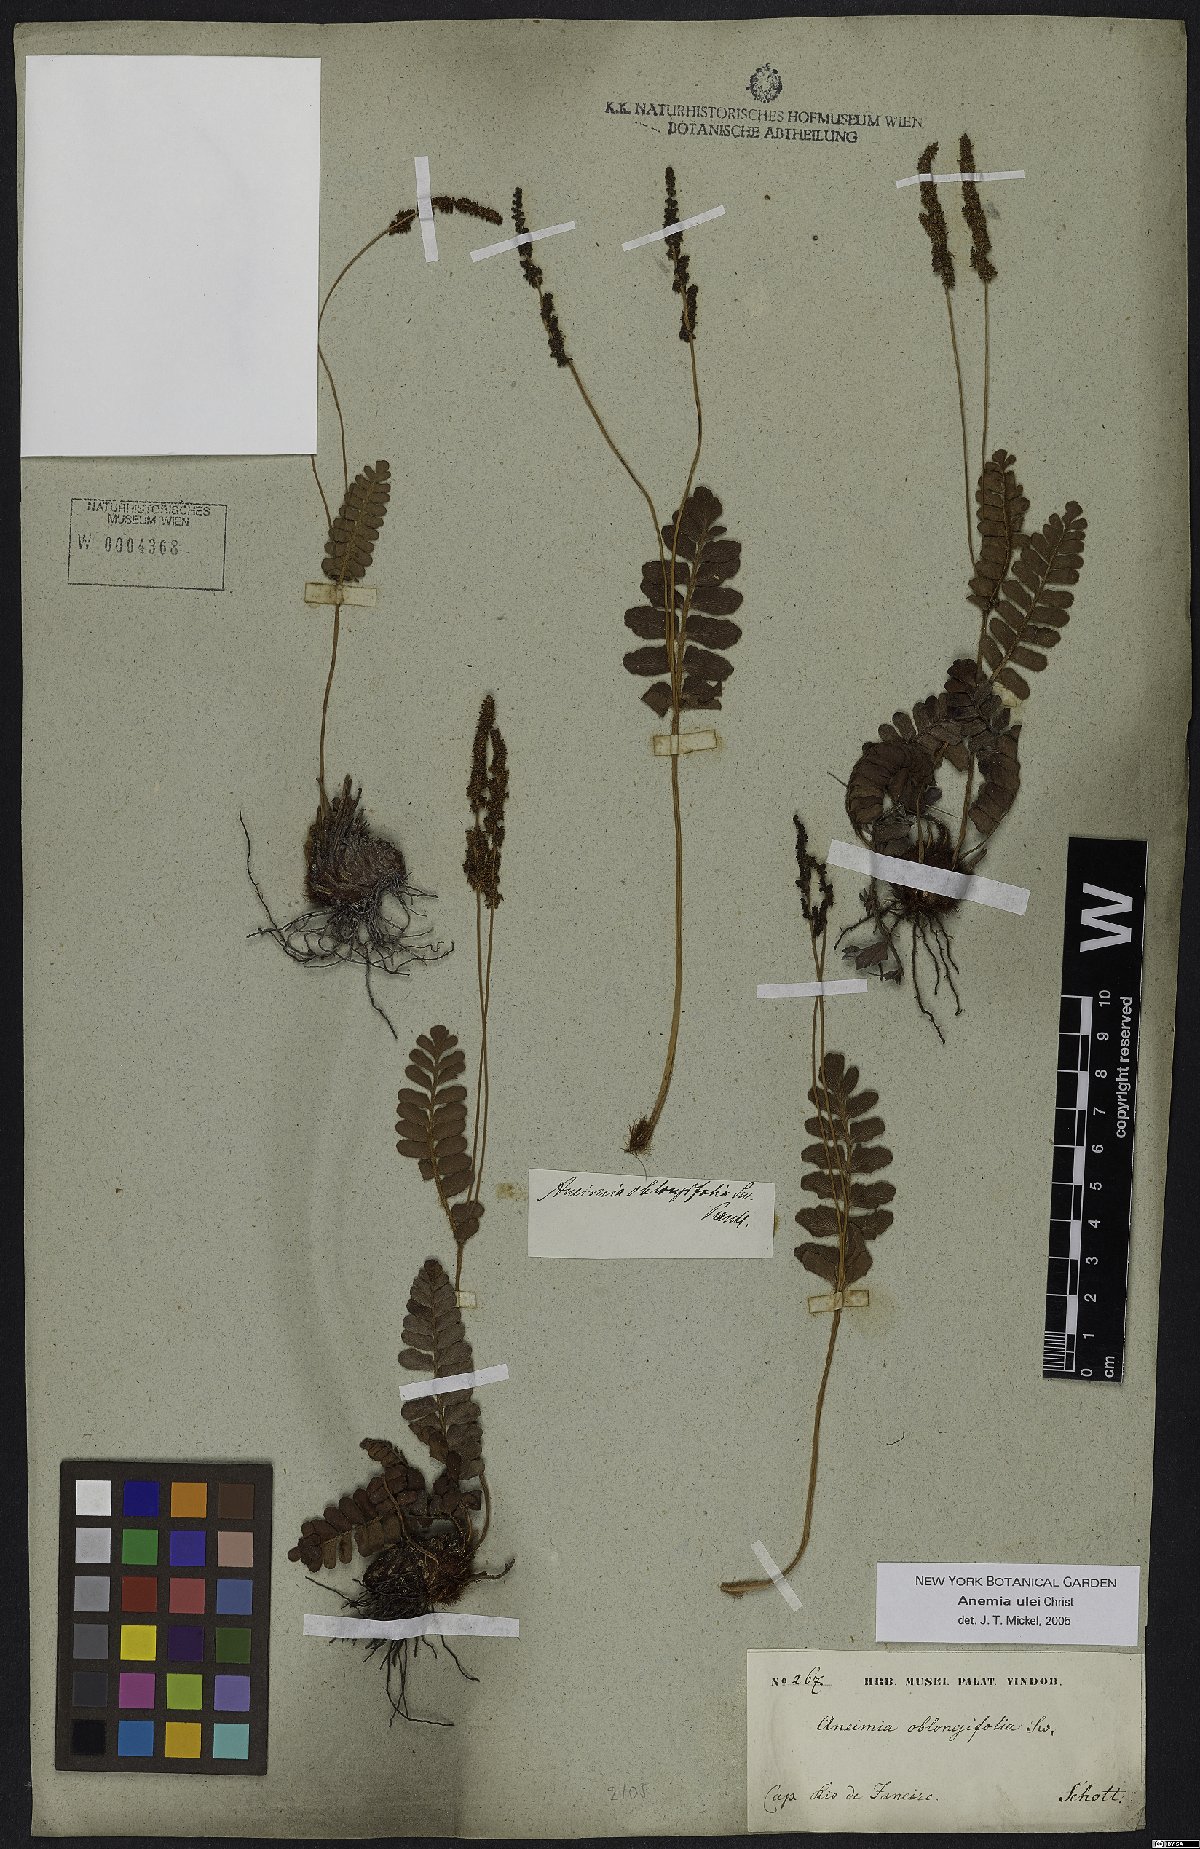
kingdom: Plantae
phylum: Tracheophyta
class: Polypodiopsida
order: Schizaeales
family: Anemiaceae
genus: Anemia
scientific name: Anemia oblongifolia
